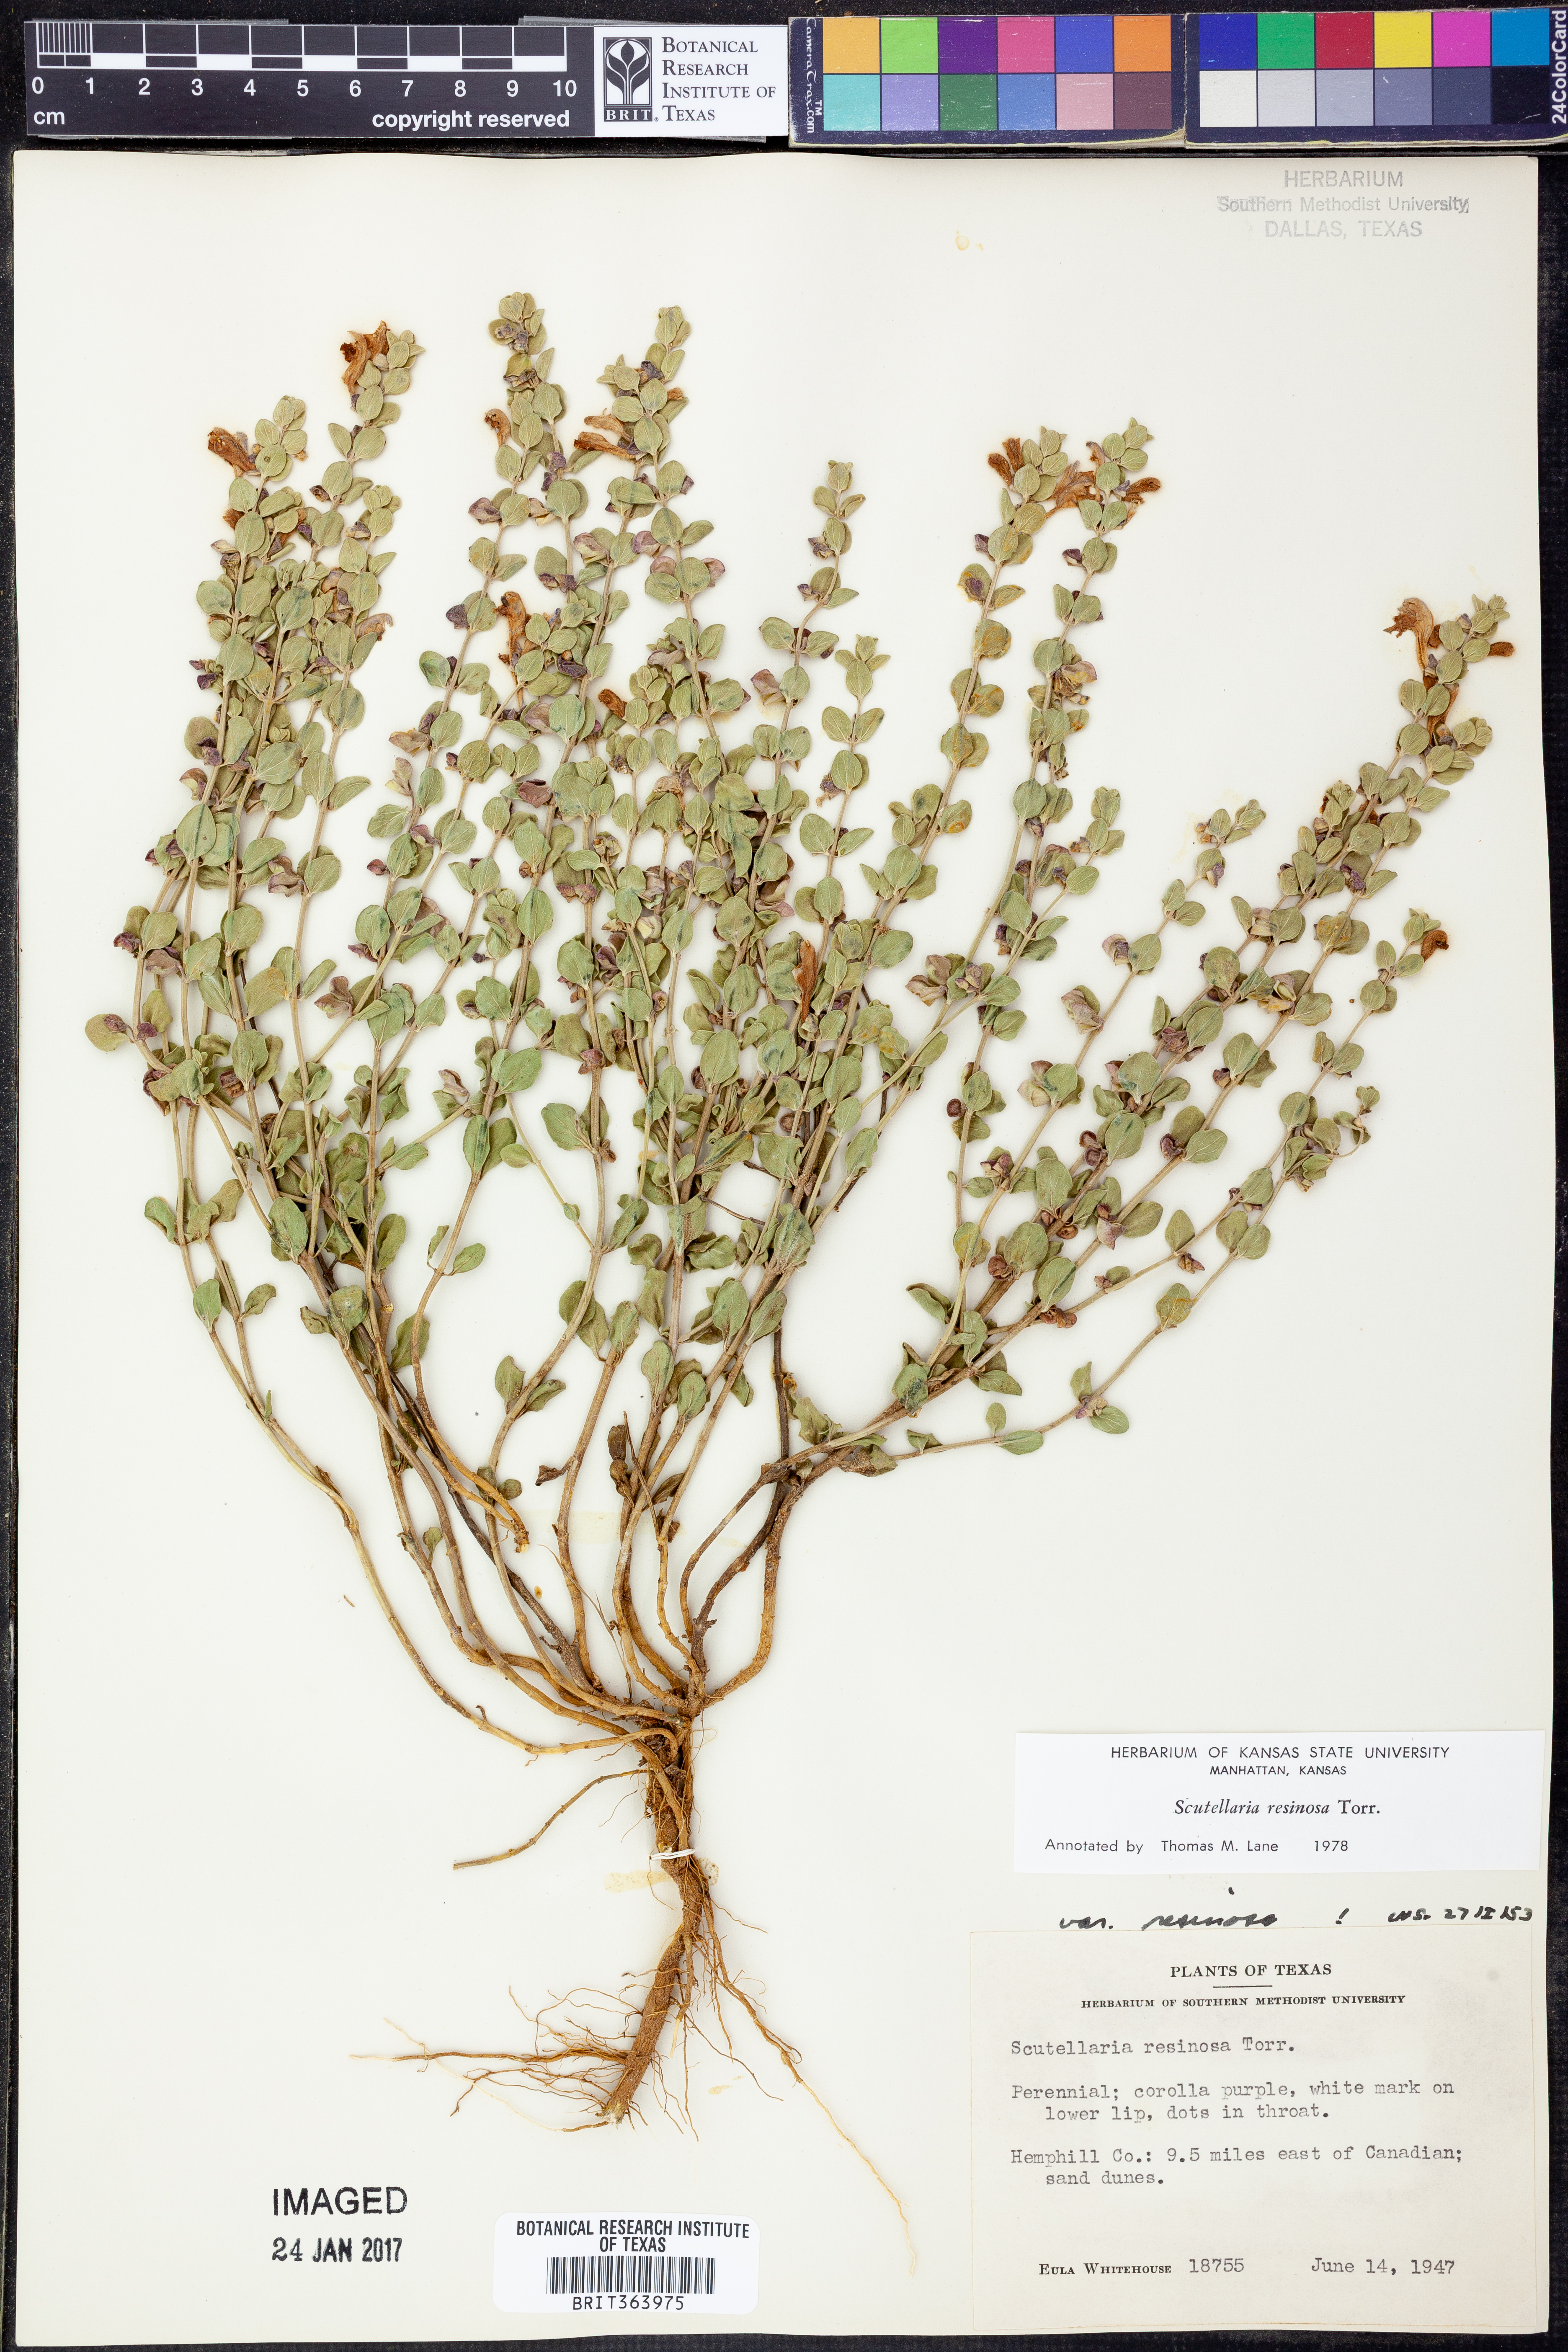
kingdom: Plantae
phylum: Tracheophyta
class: Magnoliopsida
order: Lamiales
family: Lamiaceae
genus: Scutellaria
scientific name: Scutellaria resinosa
